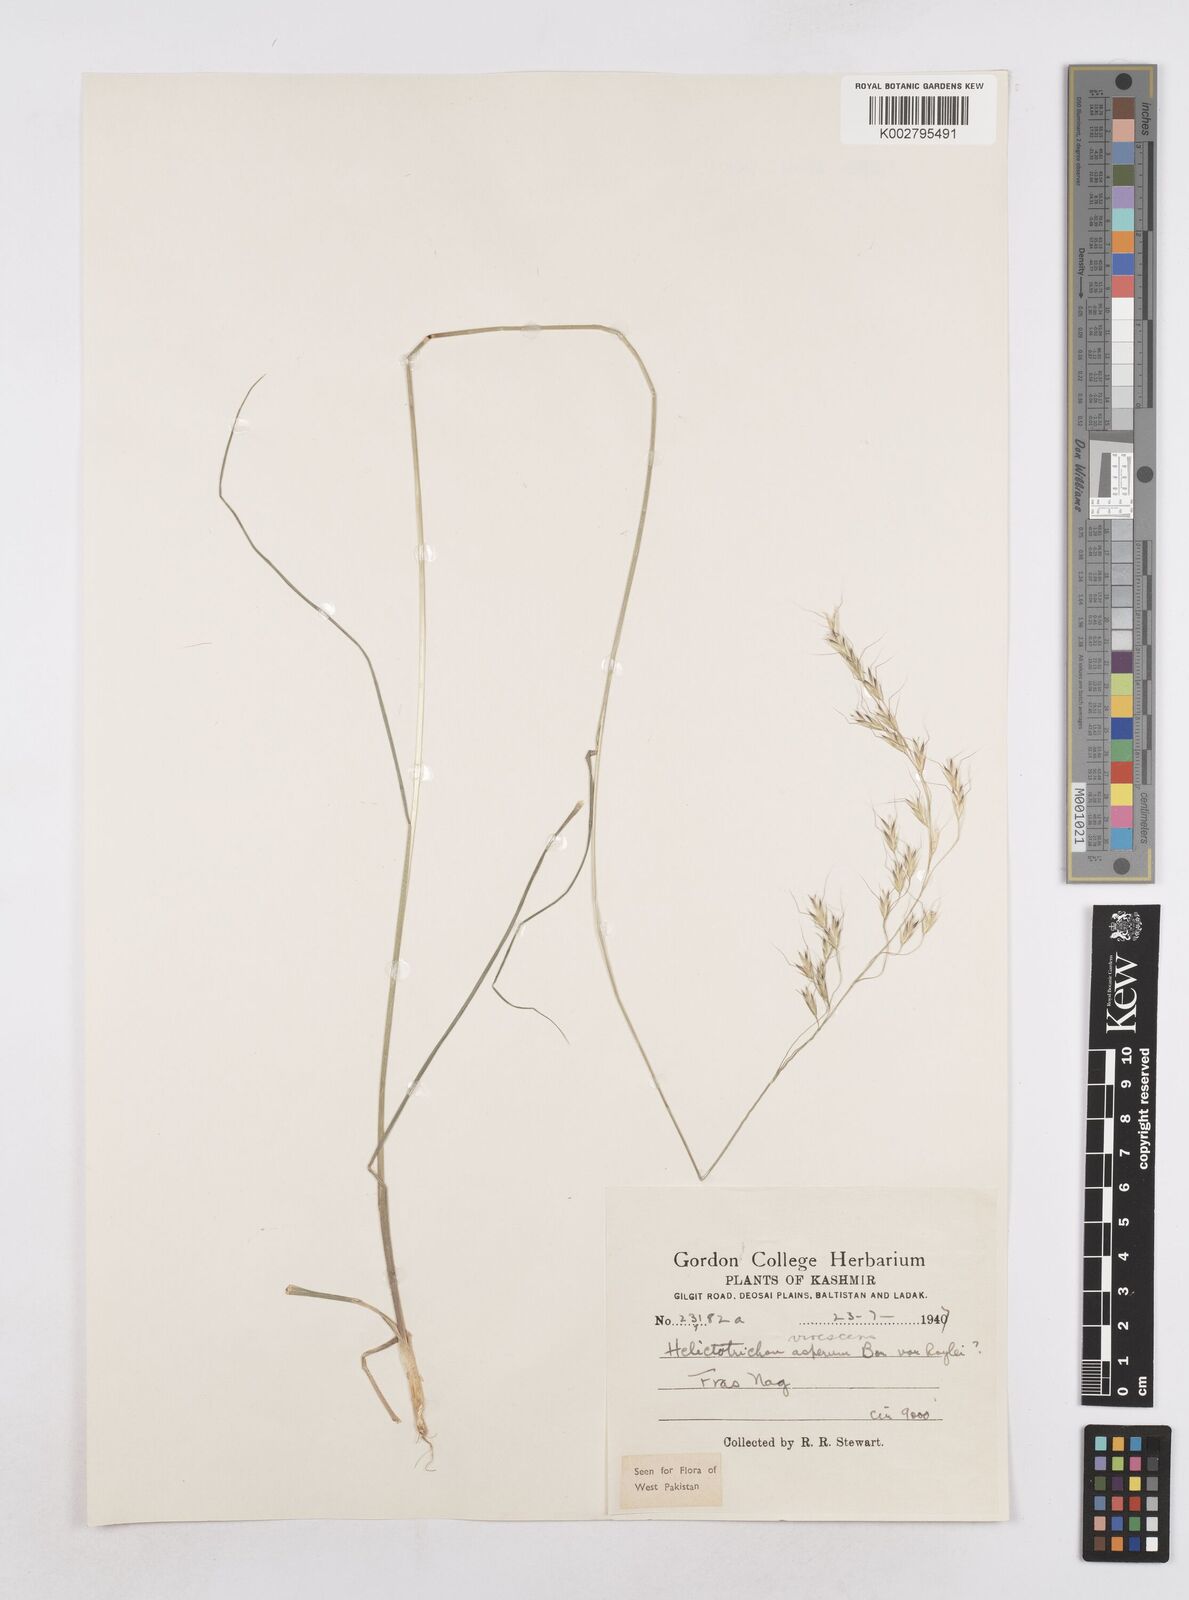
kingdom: Plantae
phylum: Tracheophyta
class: Liliopsida
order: Poales
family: Poaceae
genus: Trisetopsis
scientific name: Trisetopsis junghuhnii
